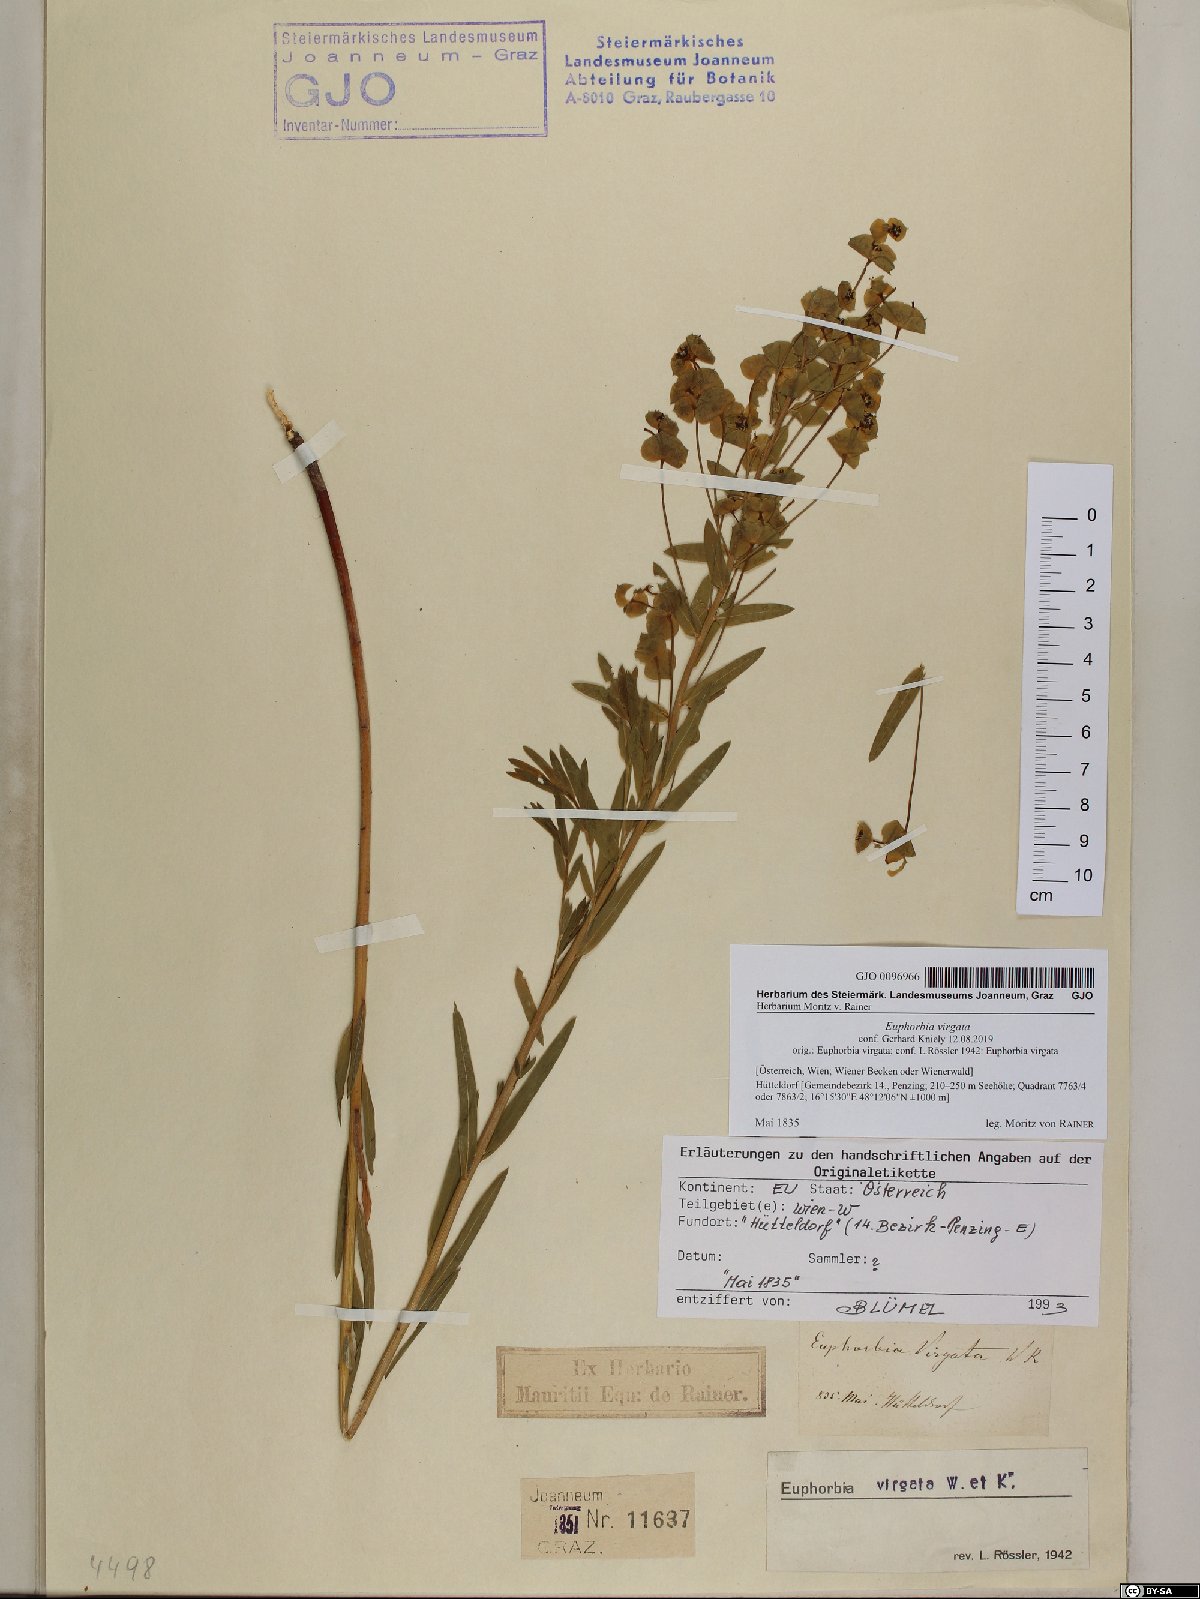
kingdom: Plantae
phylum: Tracheophyta
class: Magnoliopsida
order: Malpighiales
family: Euphorbiaceae
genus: Euphorbia
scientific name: Euphorbia virgata
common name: Leafy spurge
